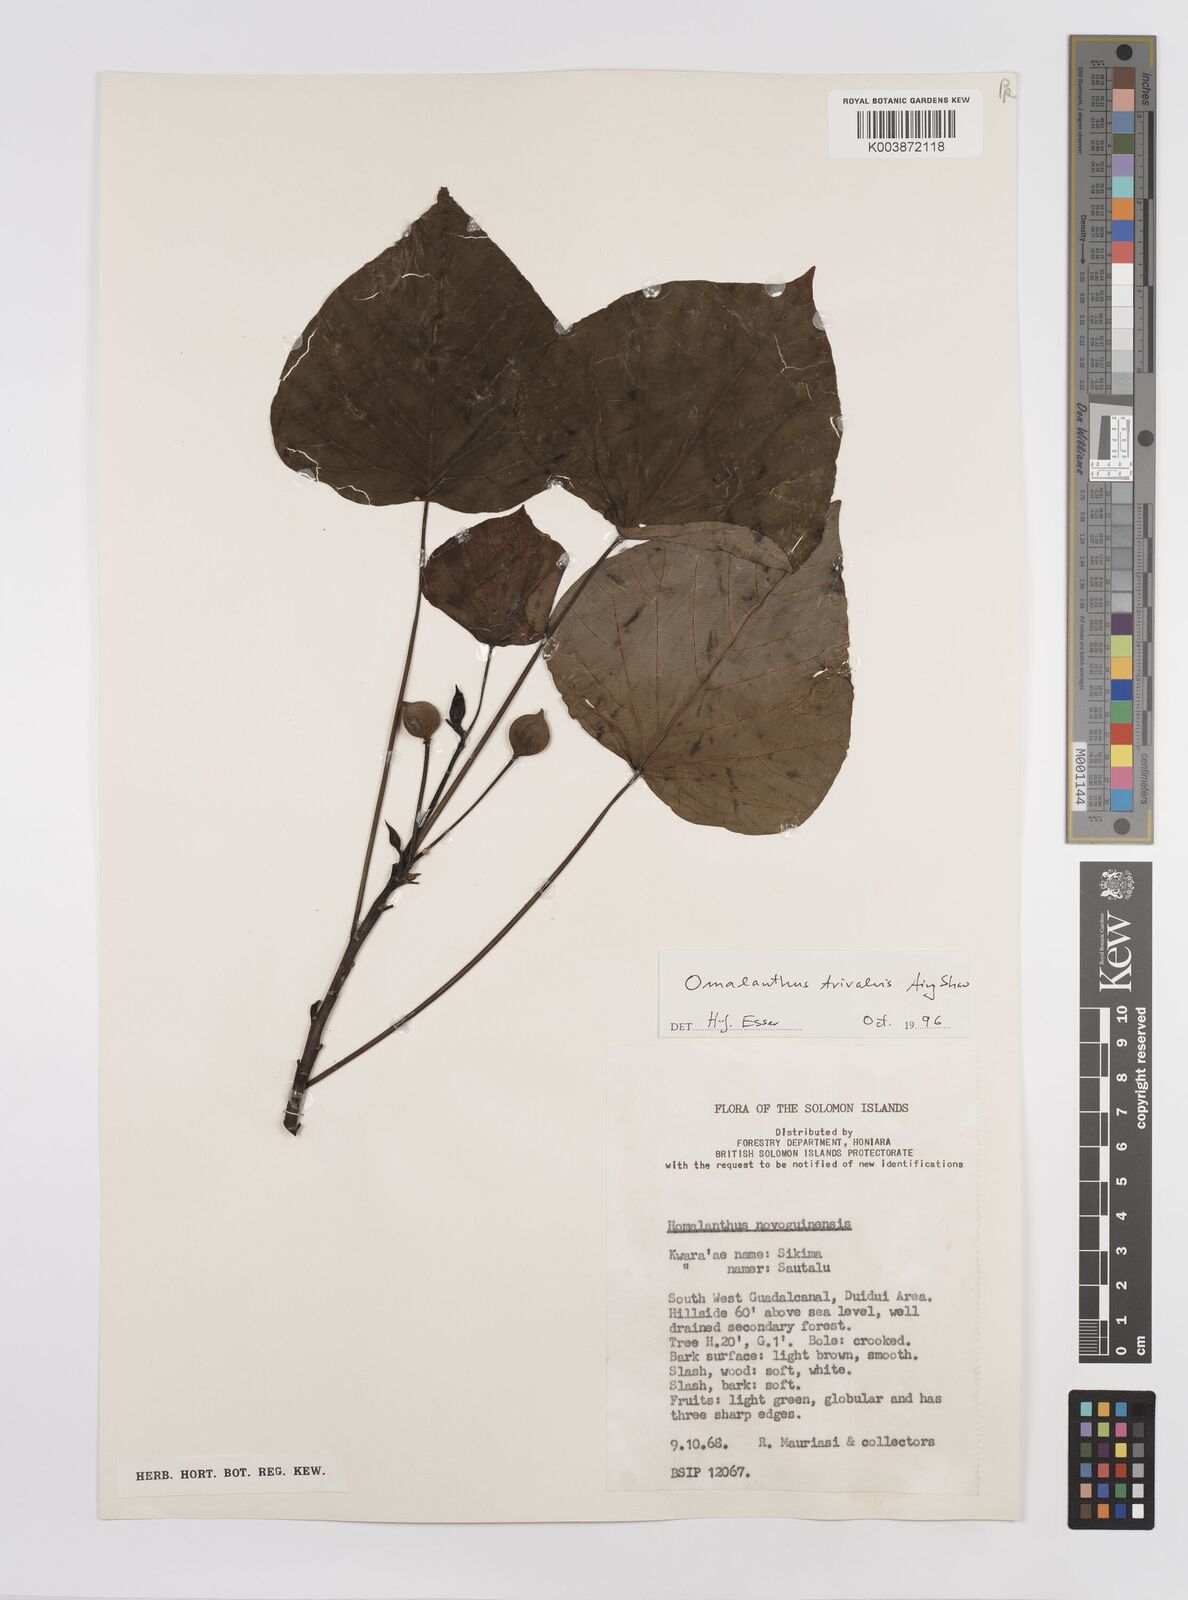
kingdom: Plantae
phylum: Tracheophyta
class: Magnoliopsida
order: Malpighiales
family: Euphorbiaceae
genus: Homalanthus
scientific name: Homalanthus trivalvis
